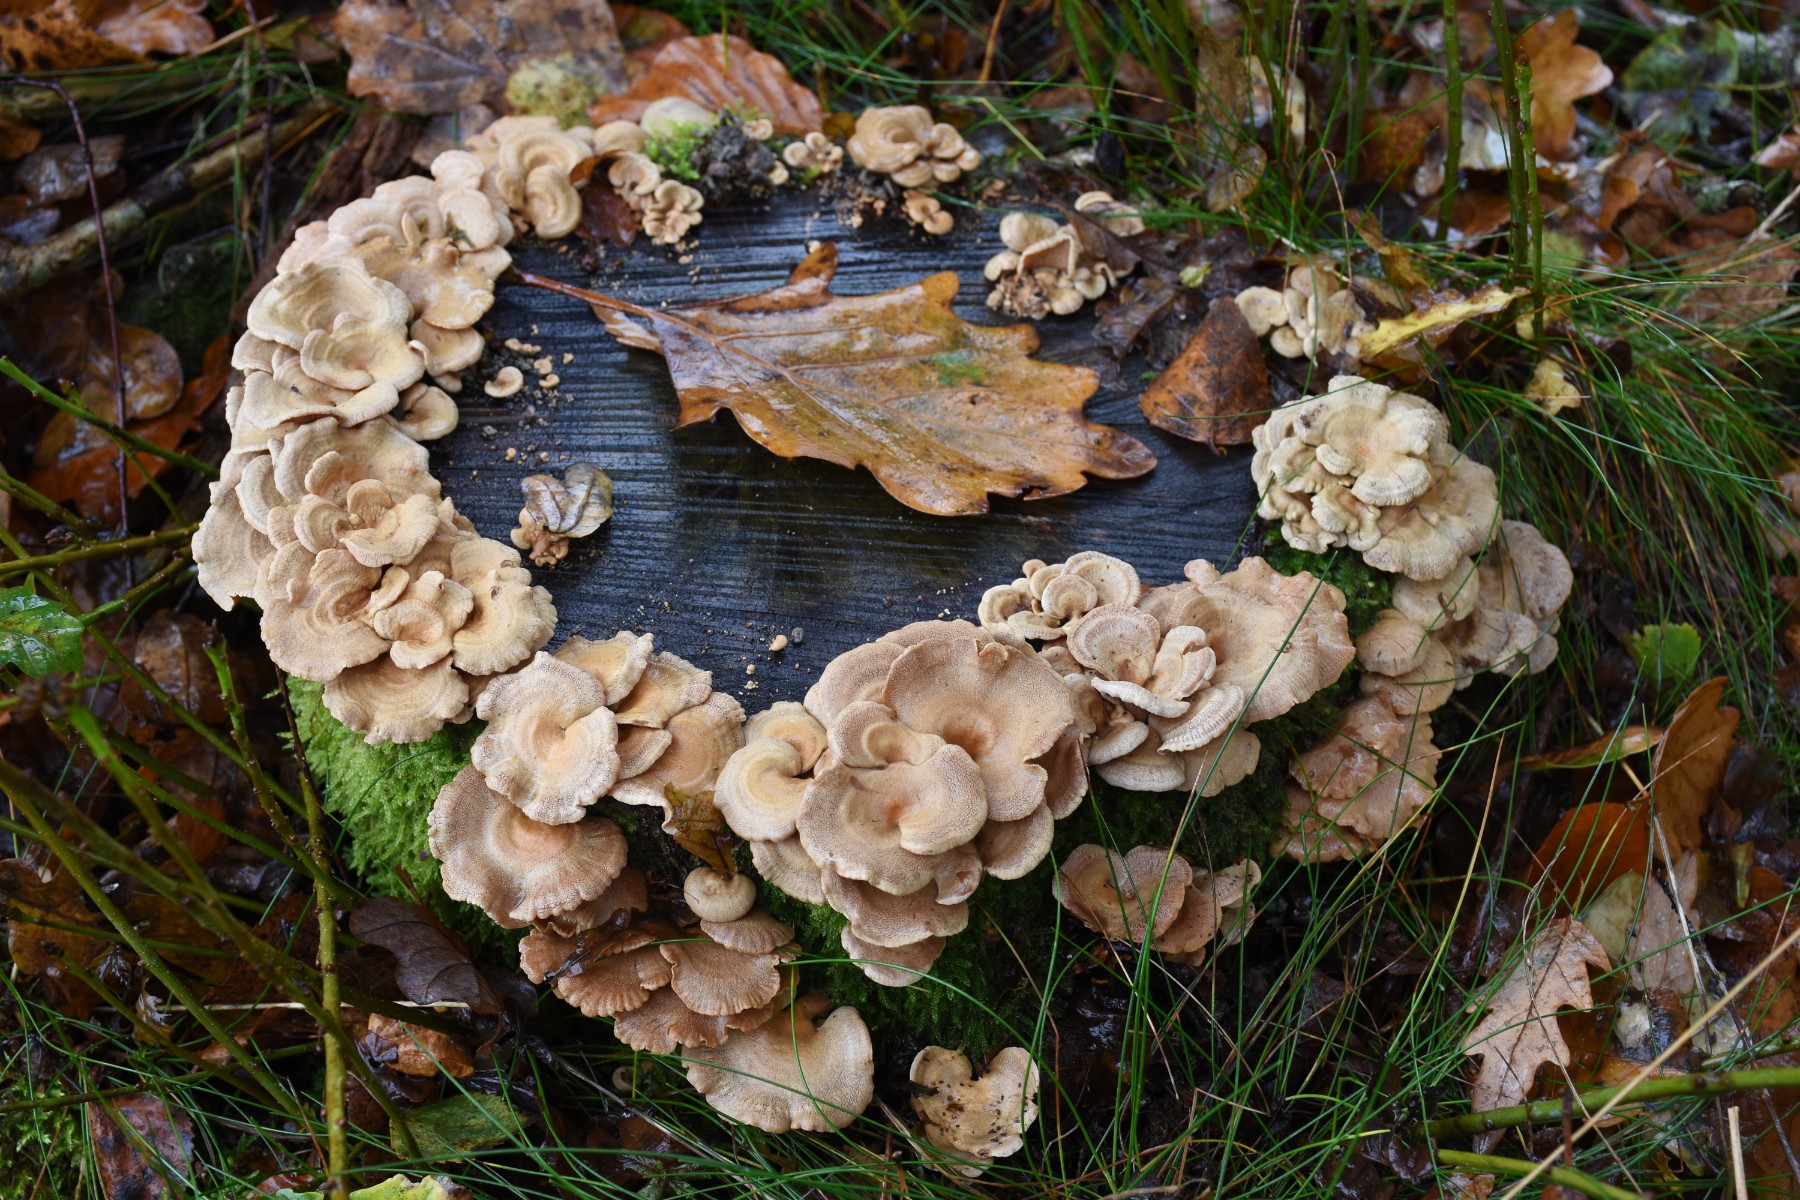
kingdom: Fungi
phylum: Basidiomycota
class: Agaricomycetes
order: Agaricales
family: Mycenaceae
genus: Panellus
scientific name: Panellus stipticus
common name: kliddet epaulethat
